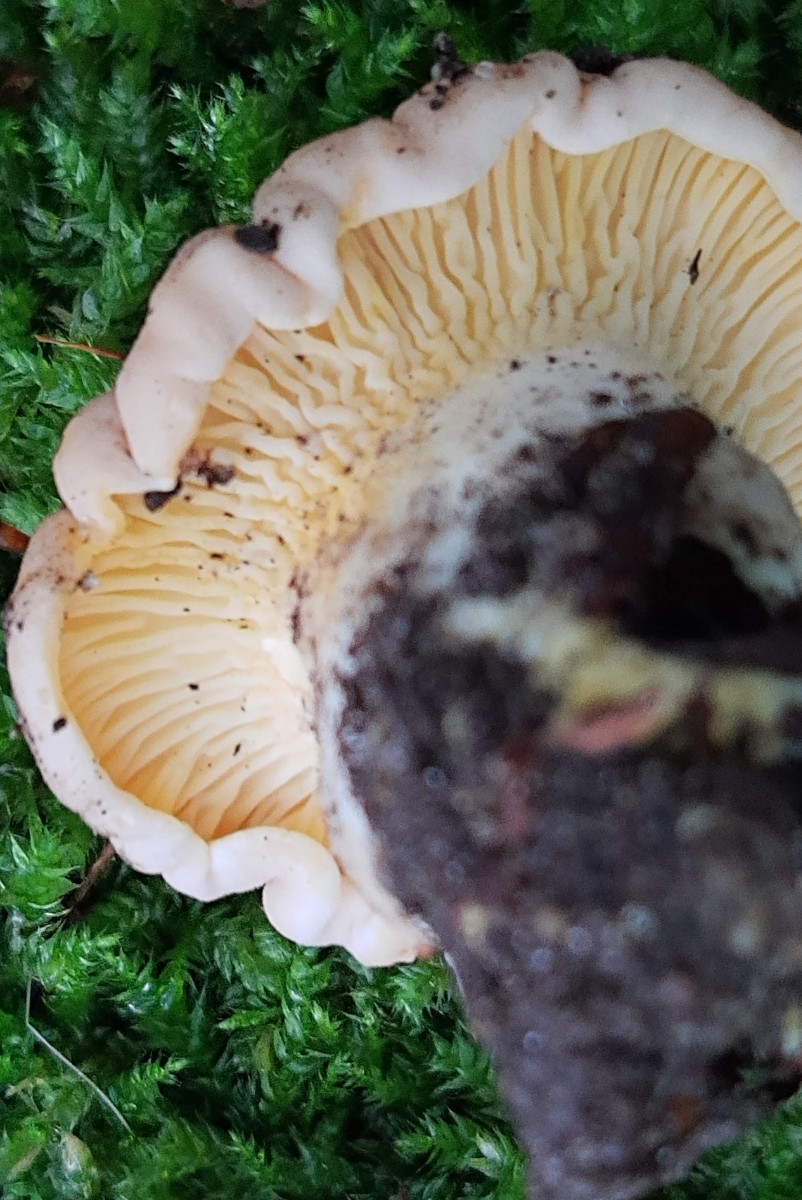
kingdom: Fungi
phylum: Basidiomycota
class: Agaricomycetes
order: Cantharellales
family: Hydnaceae
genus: Cantharellus
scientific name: Cantharellus pallens
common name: bleg kantarel
